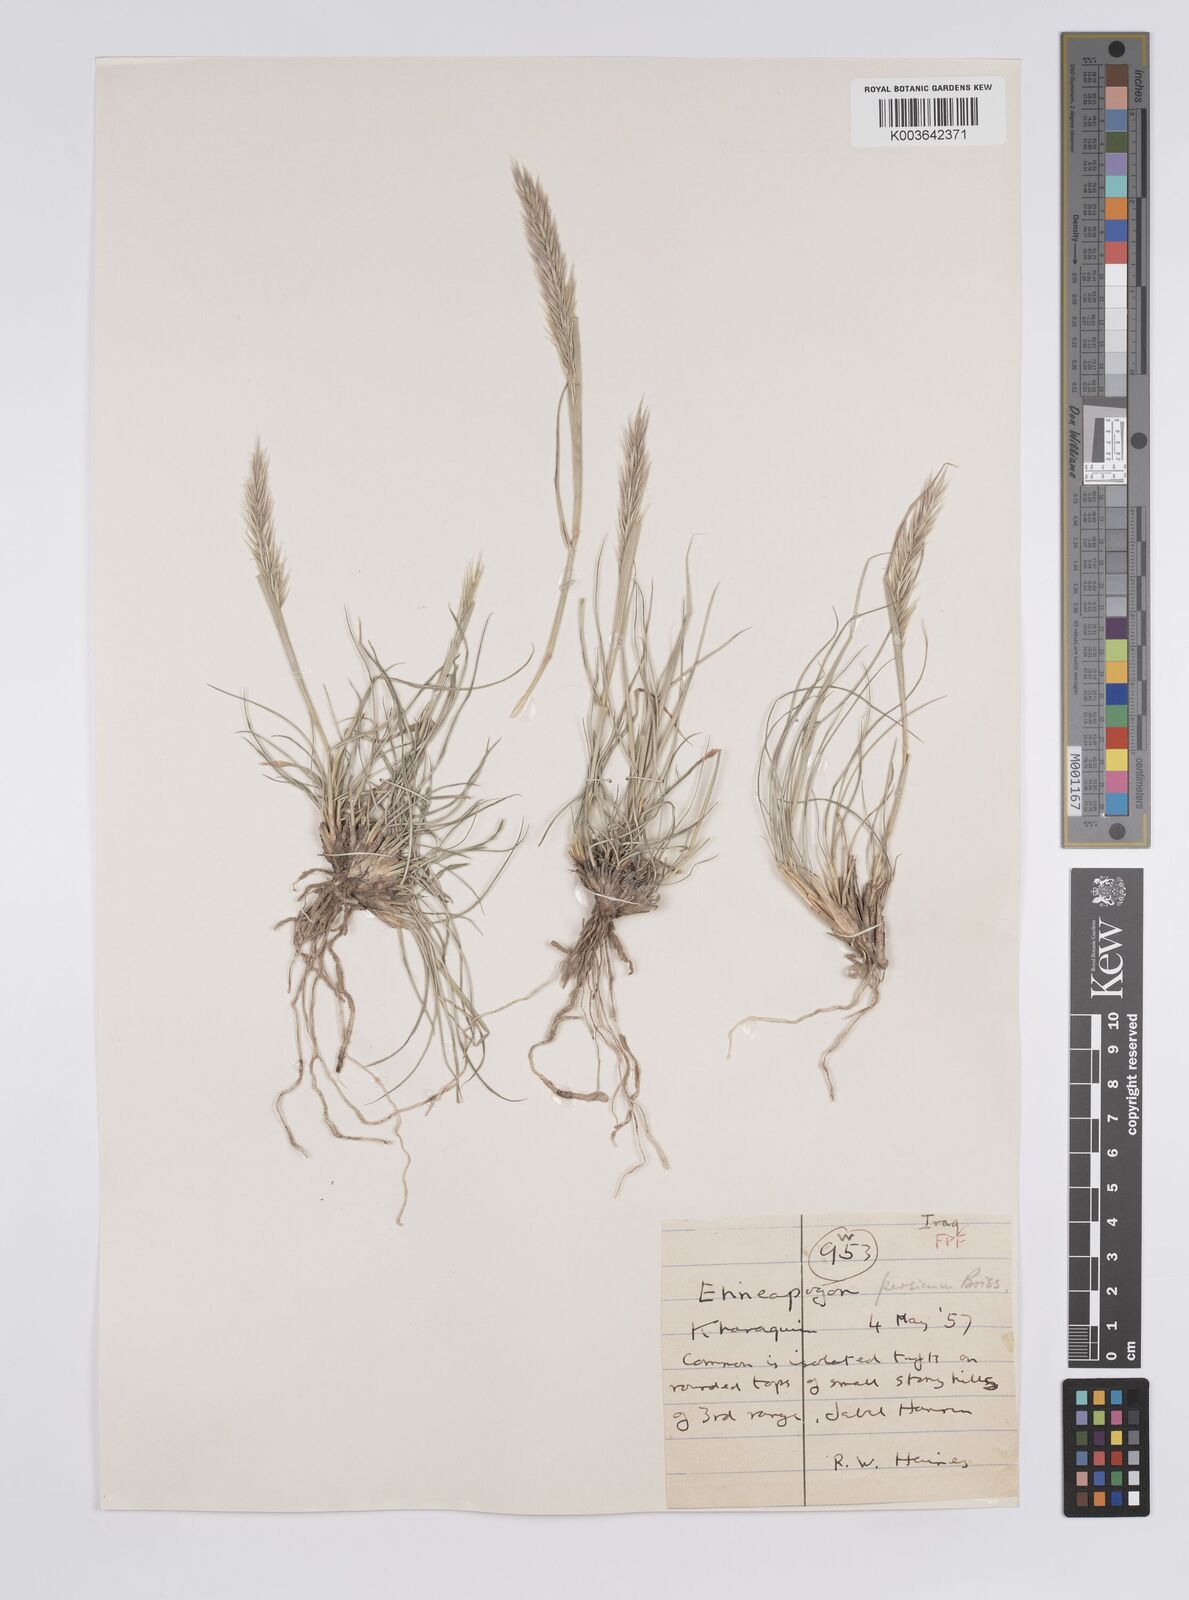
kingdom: Plantae
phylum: Tracheophyta
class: Liliopsida
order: Poales
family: Poaceae
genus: Enneapogon
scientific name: Enneapogon persicus
